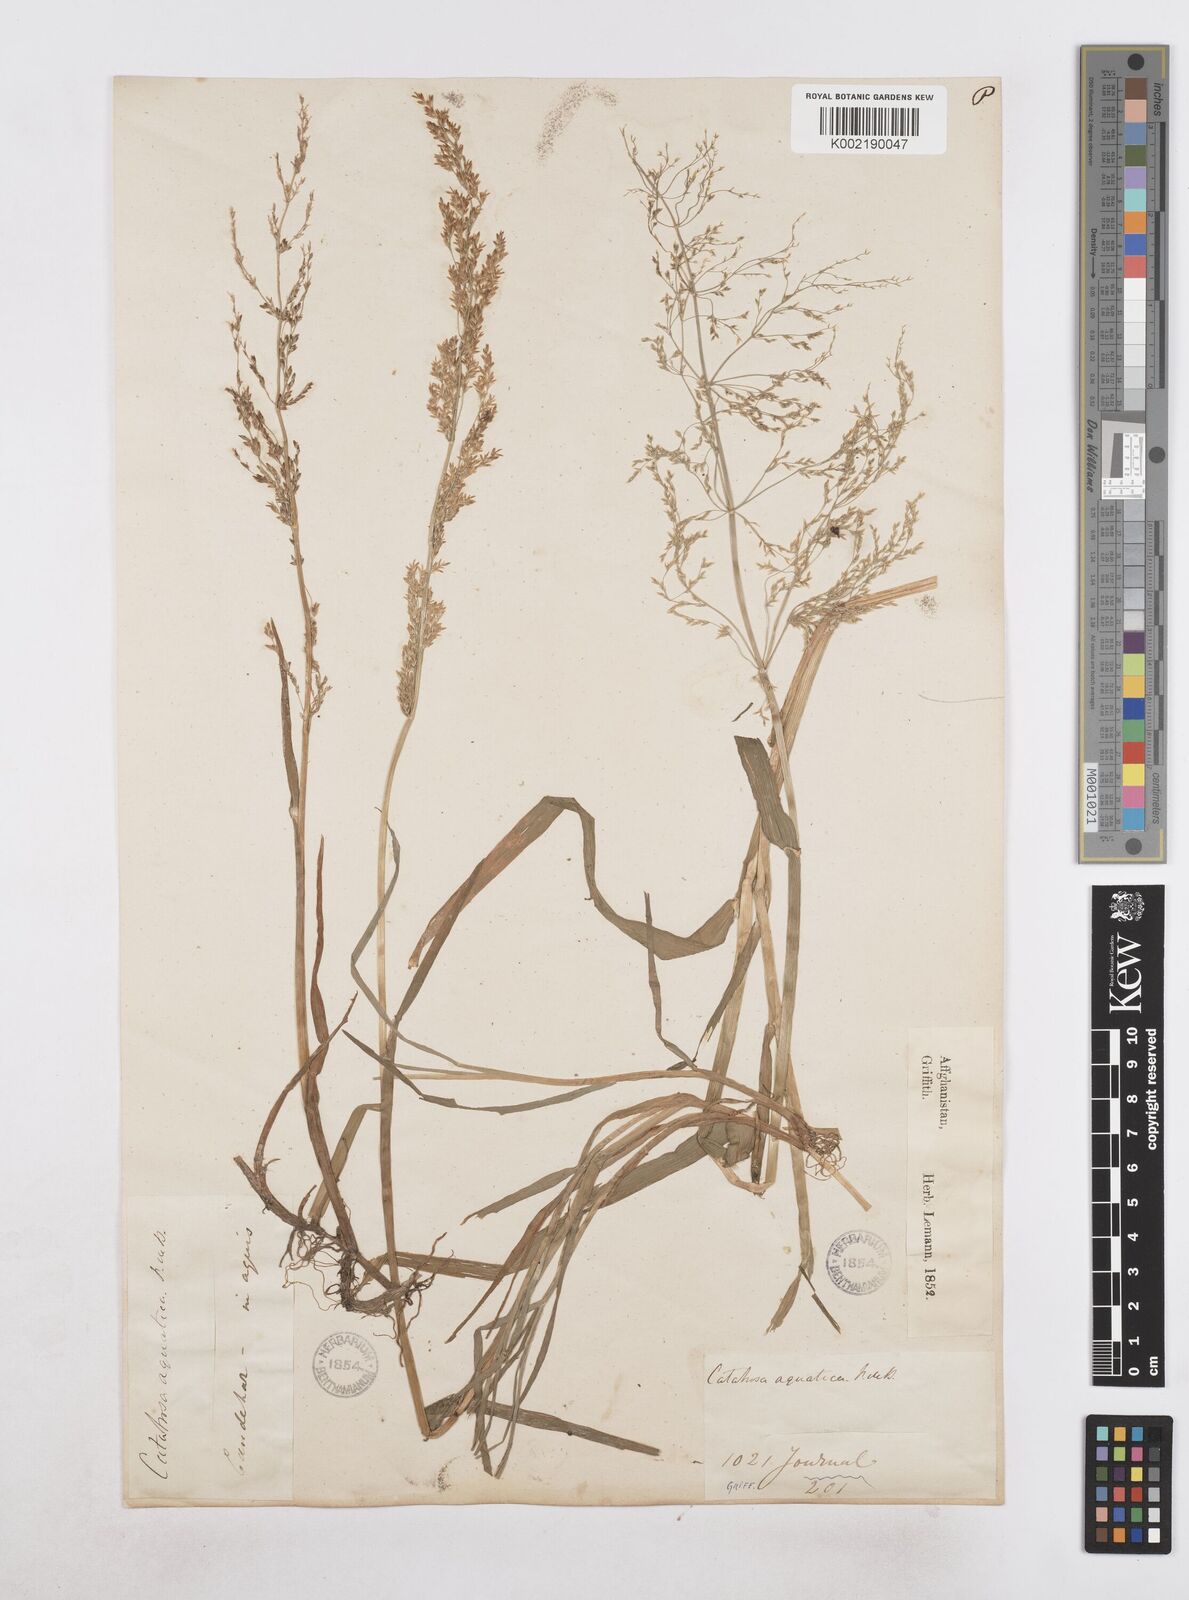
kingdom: Plantae
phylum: Tracheophyta
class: Liliopsida
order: Poales
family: Poaceae
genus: Catabrosa
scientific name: Catabrosa aquatica
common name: Whorl-grass
